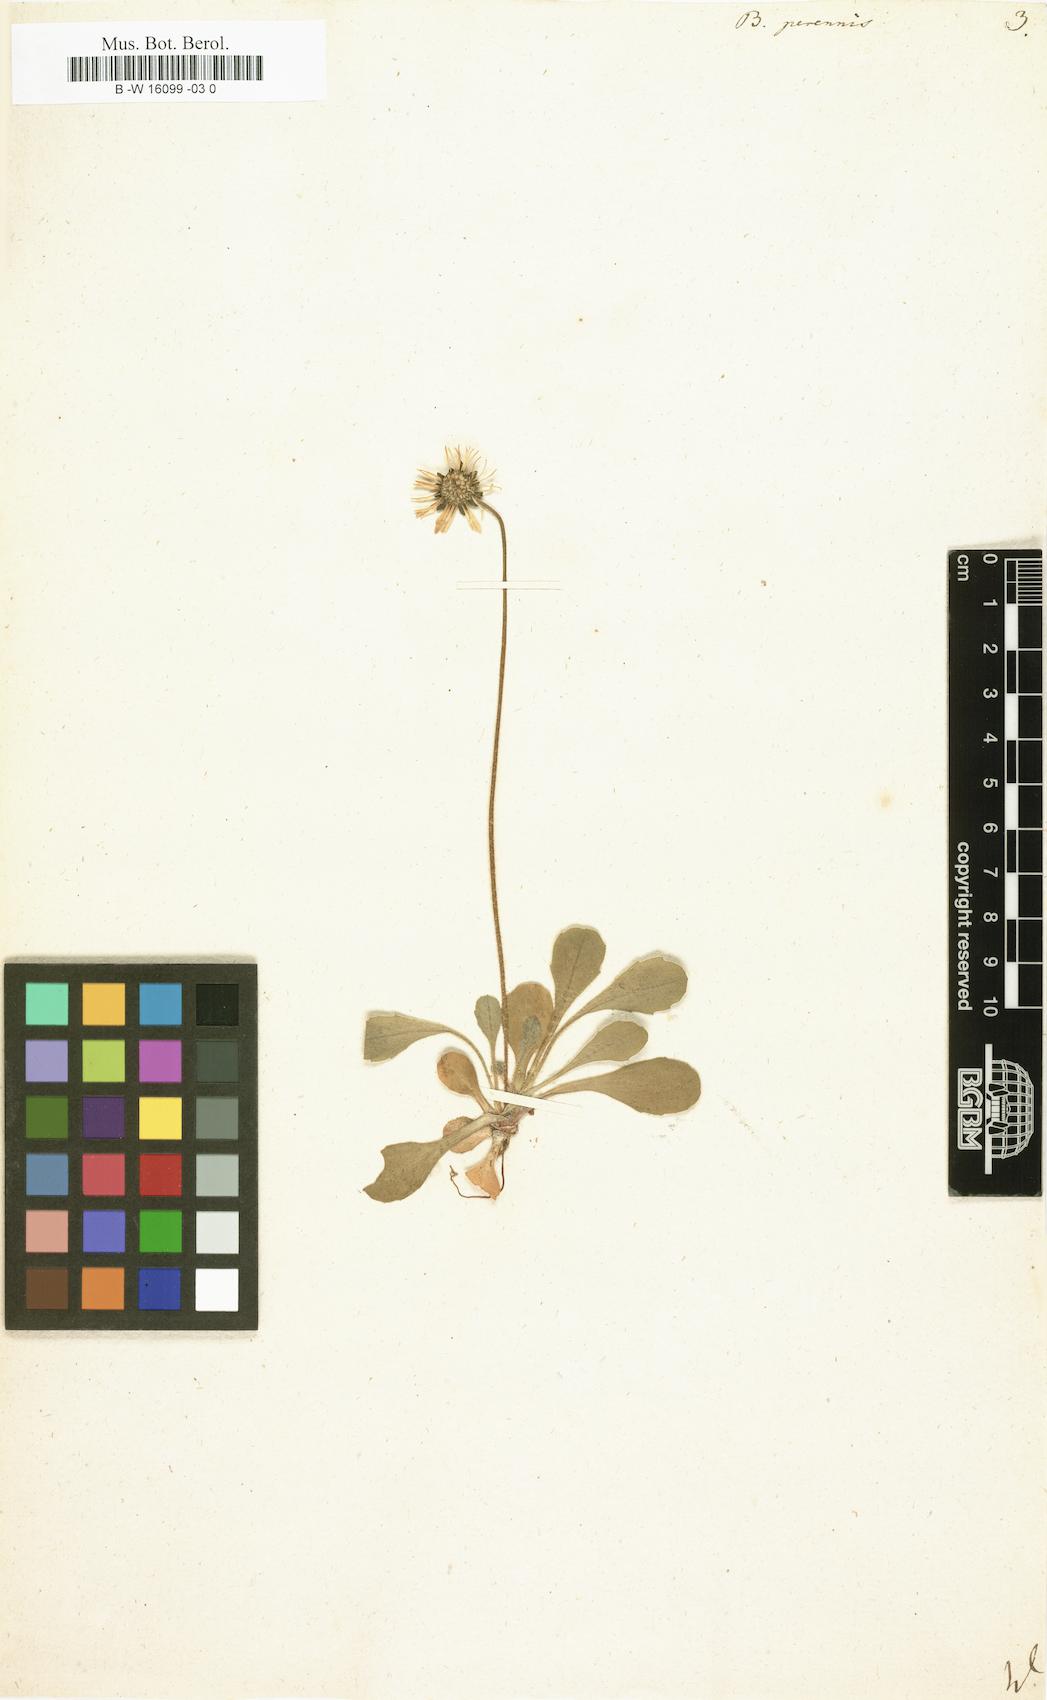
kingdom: Plantae
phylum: Tracheophyta
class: Magnoliopsida
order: Asterales
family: Asteraceae
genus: Bellis
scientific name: Bellis perennis
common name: Lawndaisy
